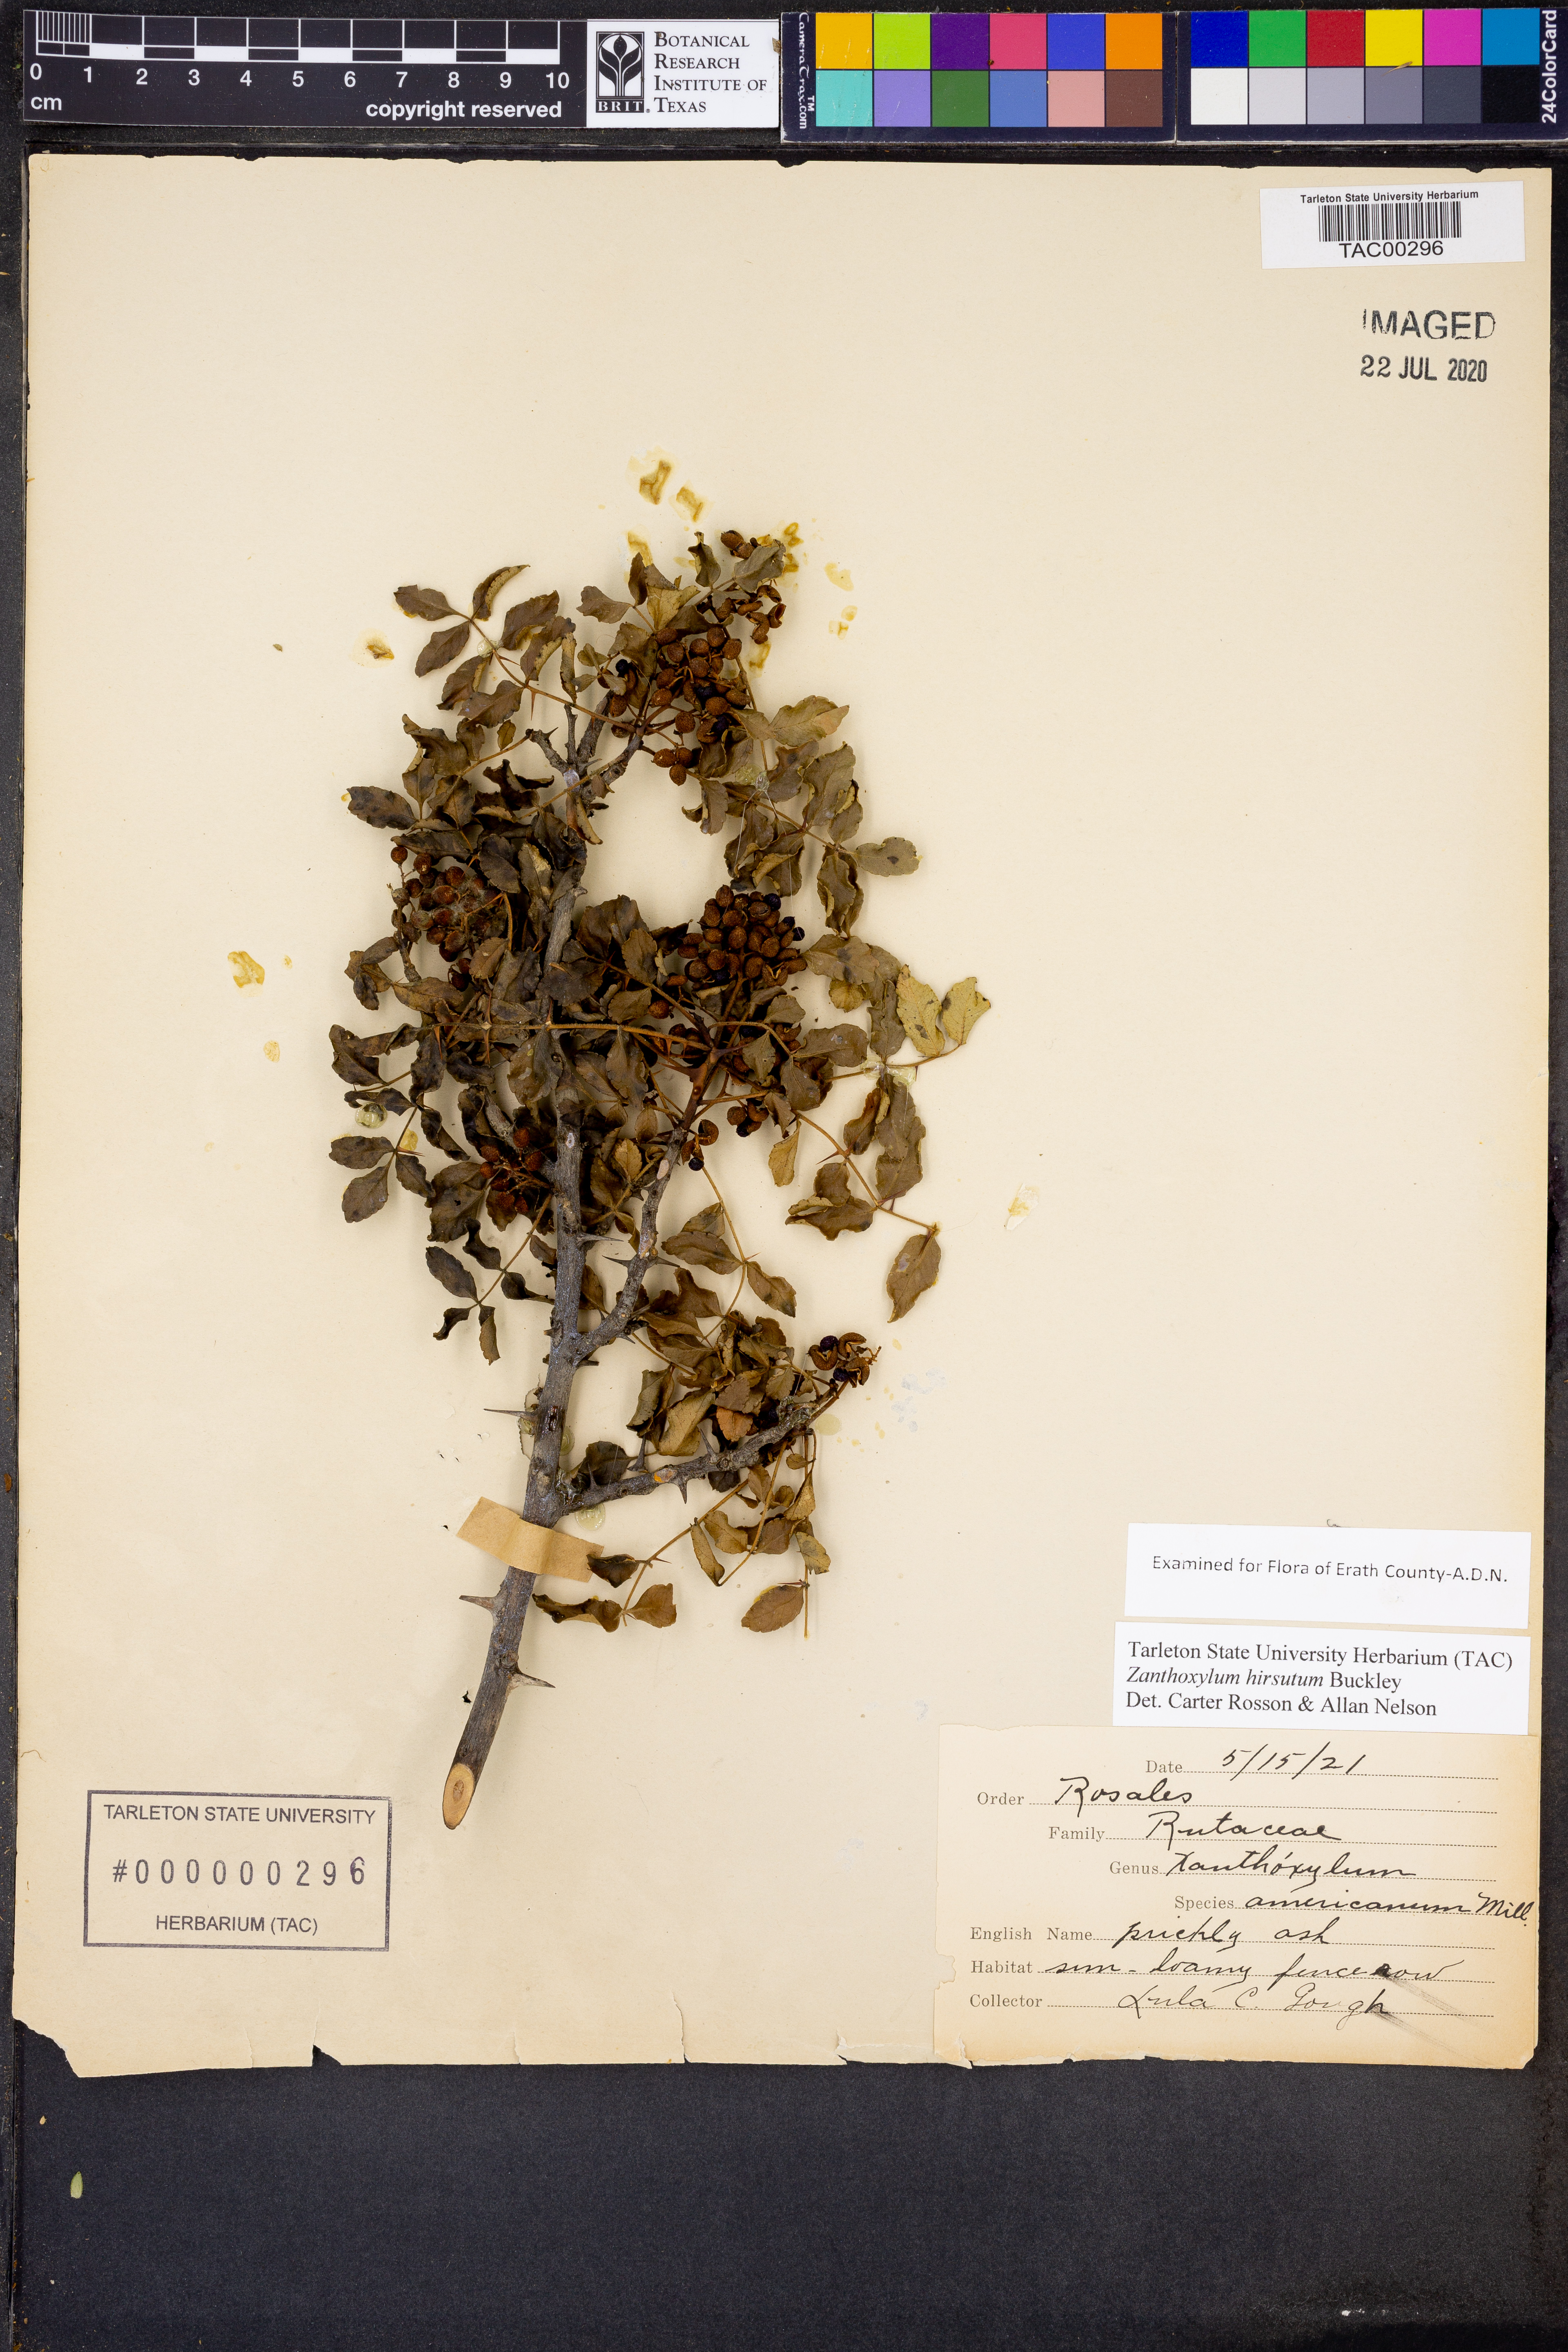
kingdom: Plantae
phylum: Tracheophyta
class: Magnoliopsida
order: Sapindales
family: Rutaceae
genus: Zanthoxylum
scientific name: Zanthoxylum clava-herculis
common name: Hercules'-club
